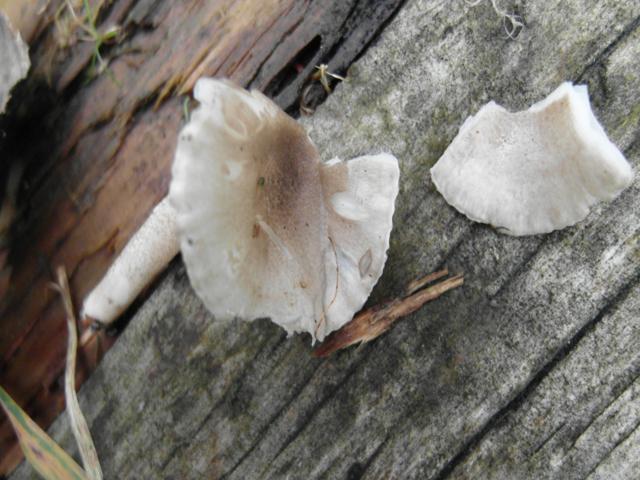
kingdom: Fungi
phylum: Basidiomycota
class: Agaricomycetes
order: Agaricales
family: Hygrophoraceae
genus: Hygrophorus
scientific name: Hygrophorus pustulatus
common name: mørkprikket sneglehat
